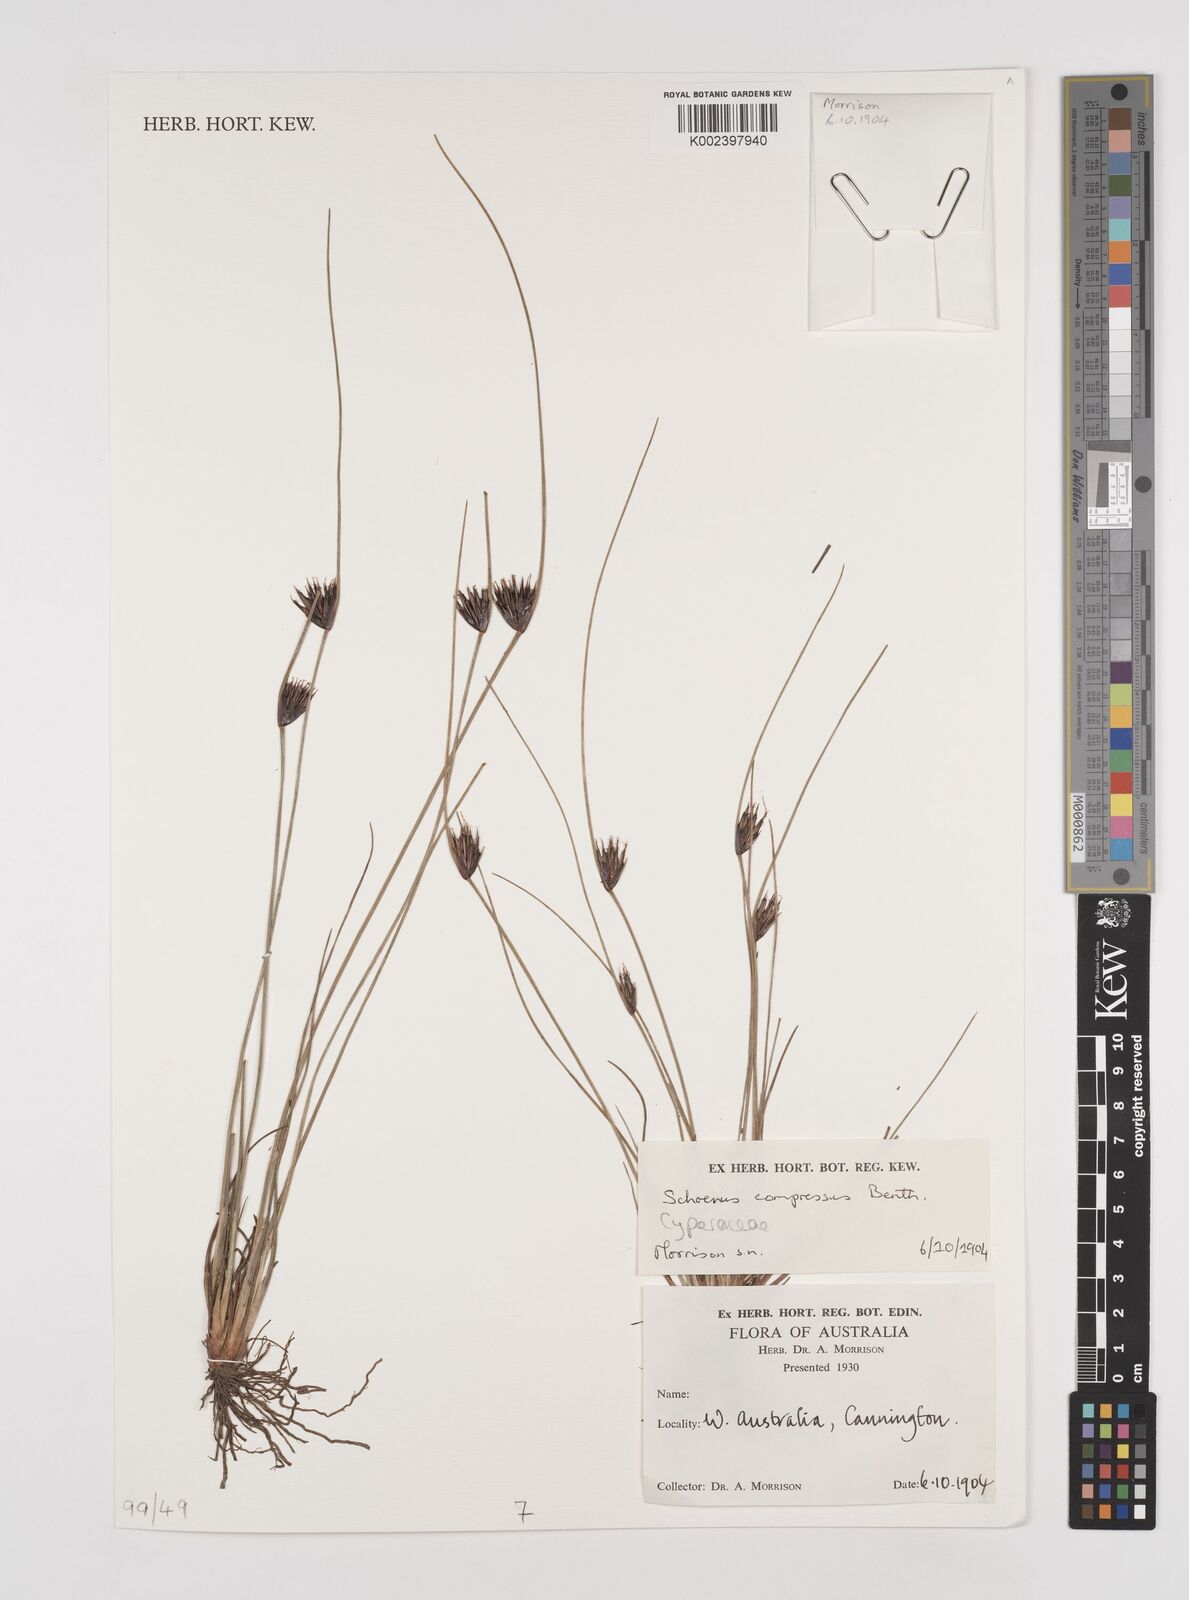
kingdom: Plantae
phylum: Tracheophyta
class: Liliopsida
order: Poales
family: Cyperaceae
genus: Schoenus
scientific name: Schoenus benthamii
